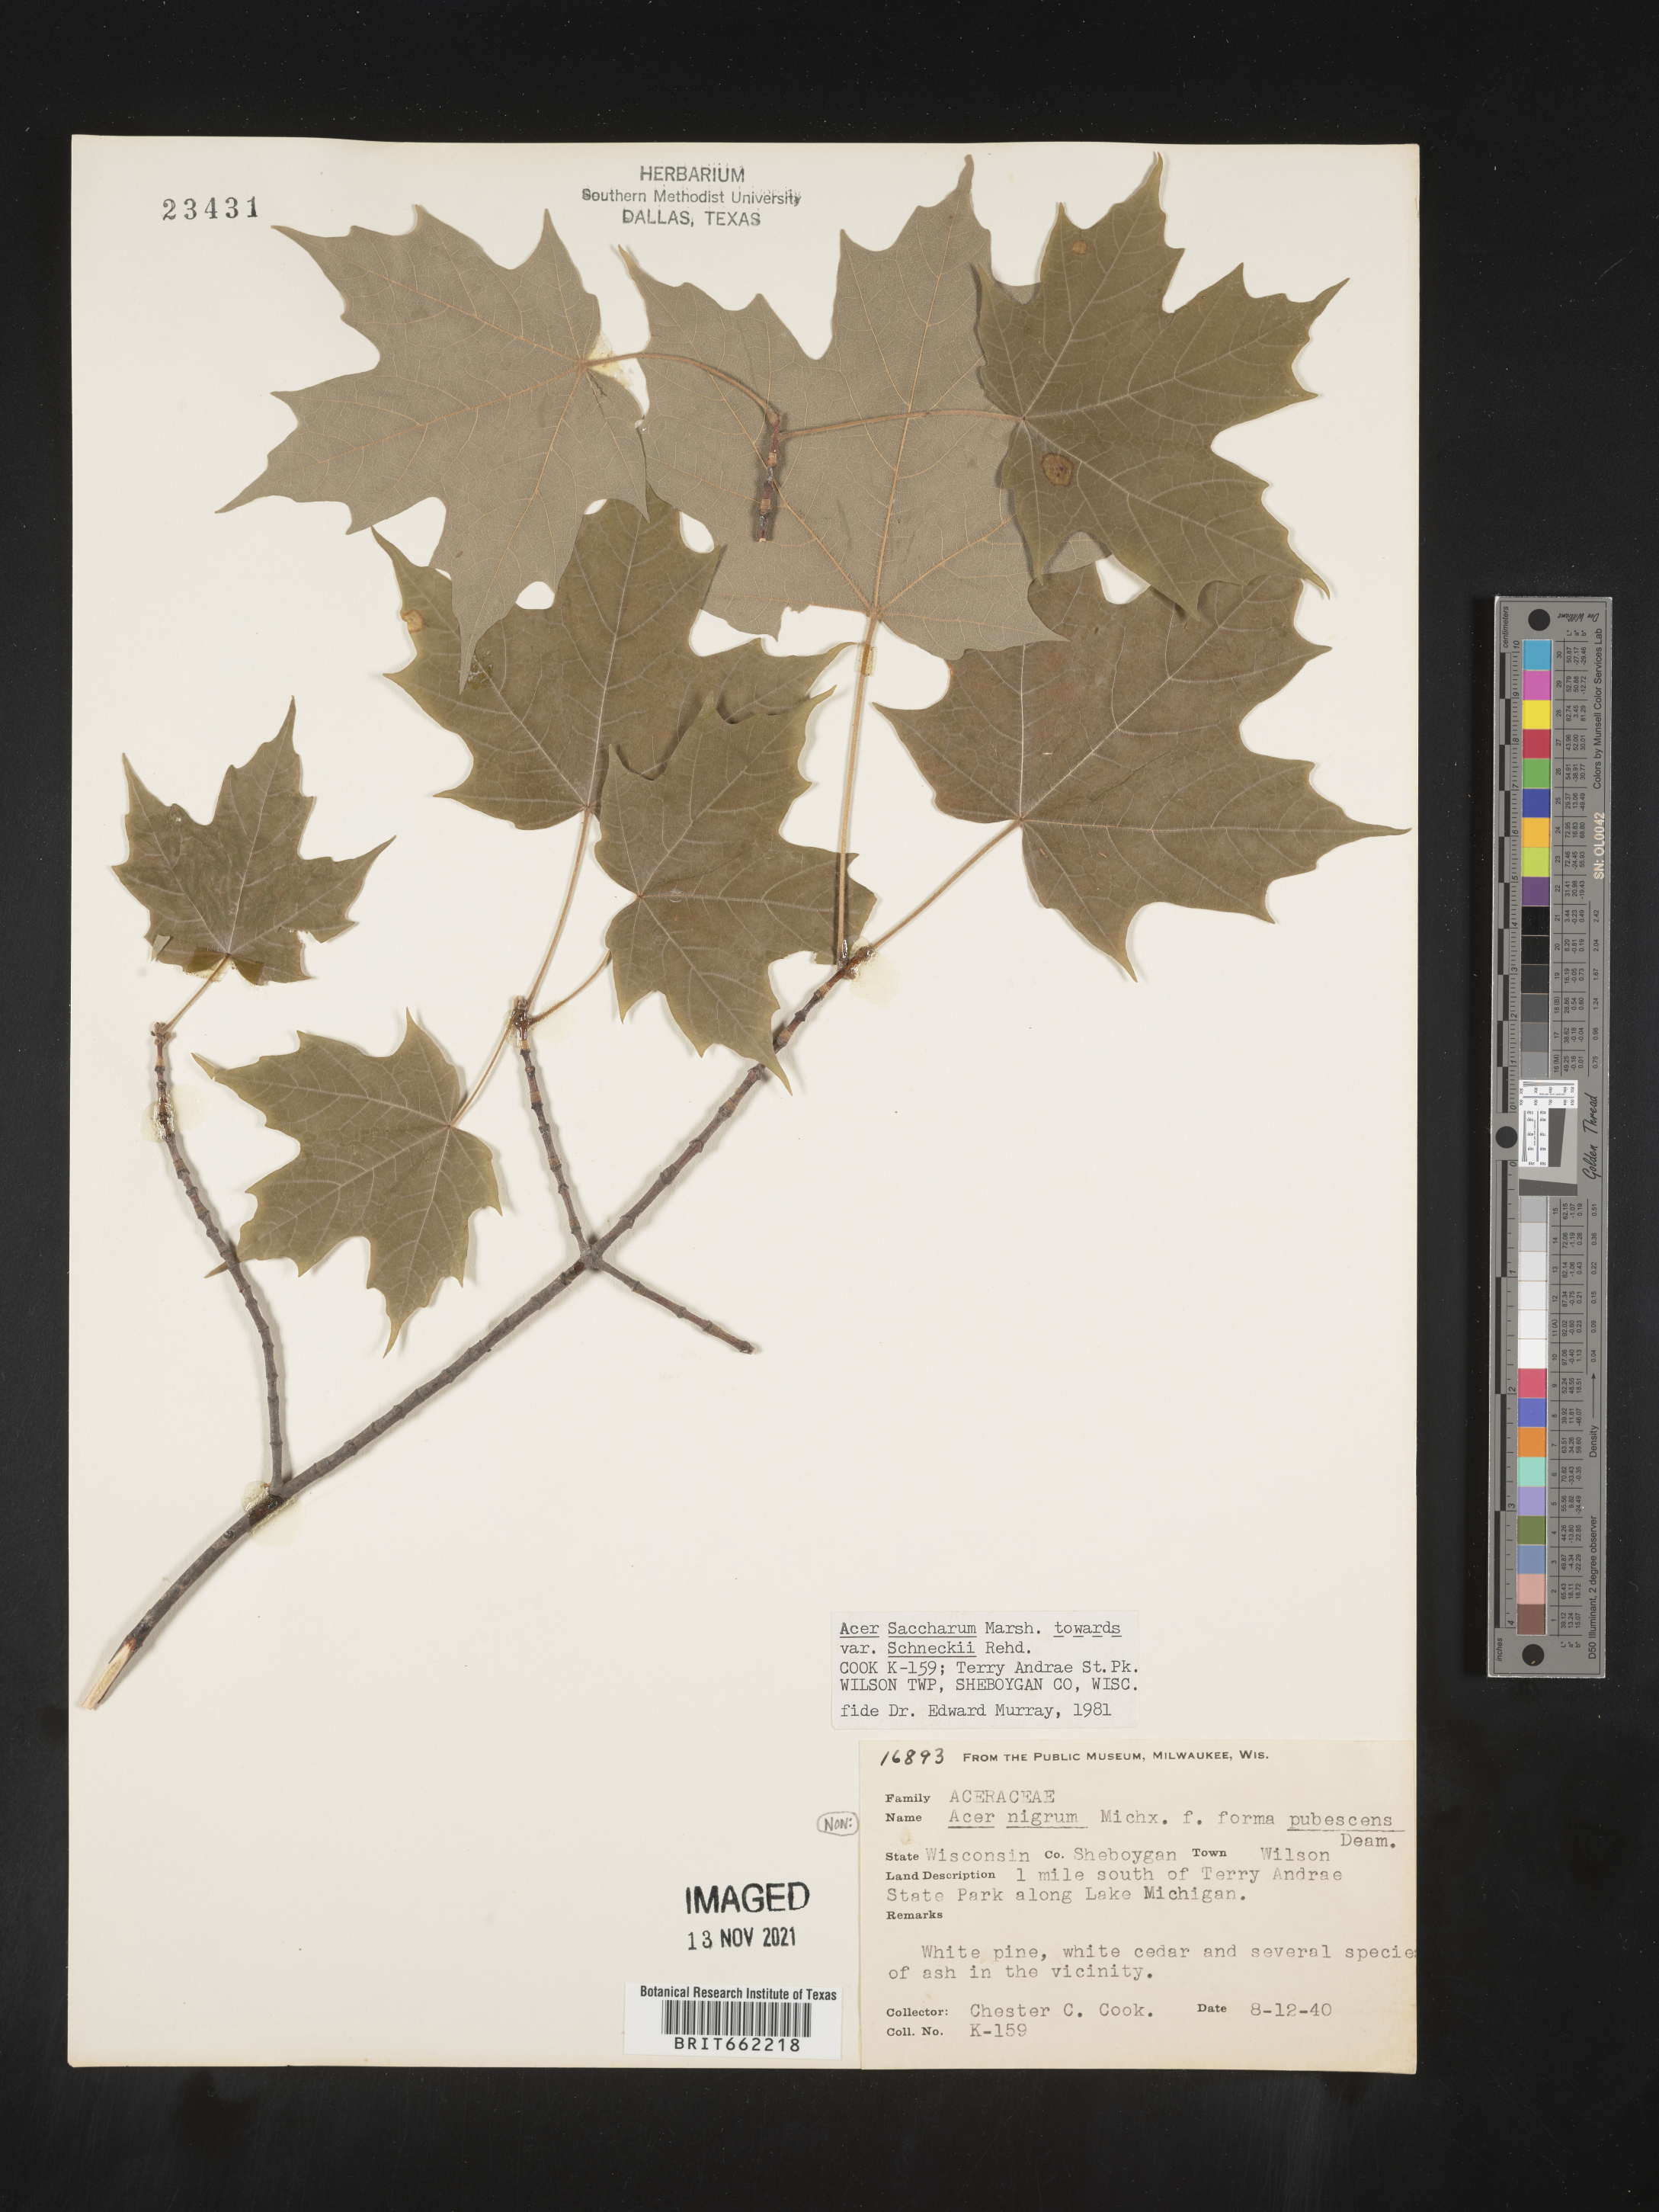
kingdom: Plantae
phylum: Tracheophyta
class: Magnoliopsida
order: Sapindales
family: Sapindaceae
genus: Acer
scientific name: Acer saccharum
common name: Sugar maple
